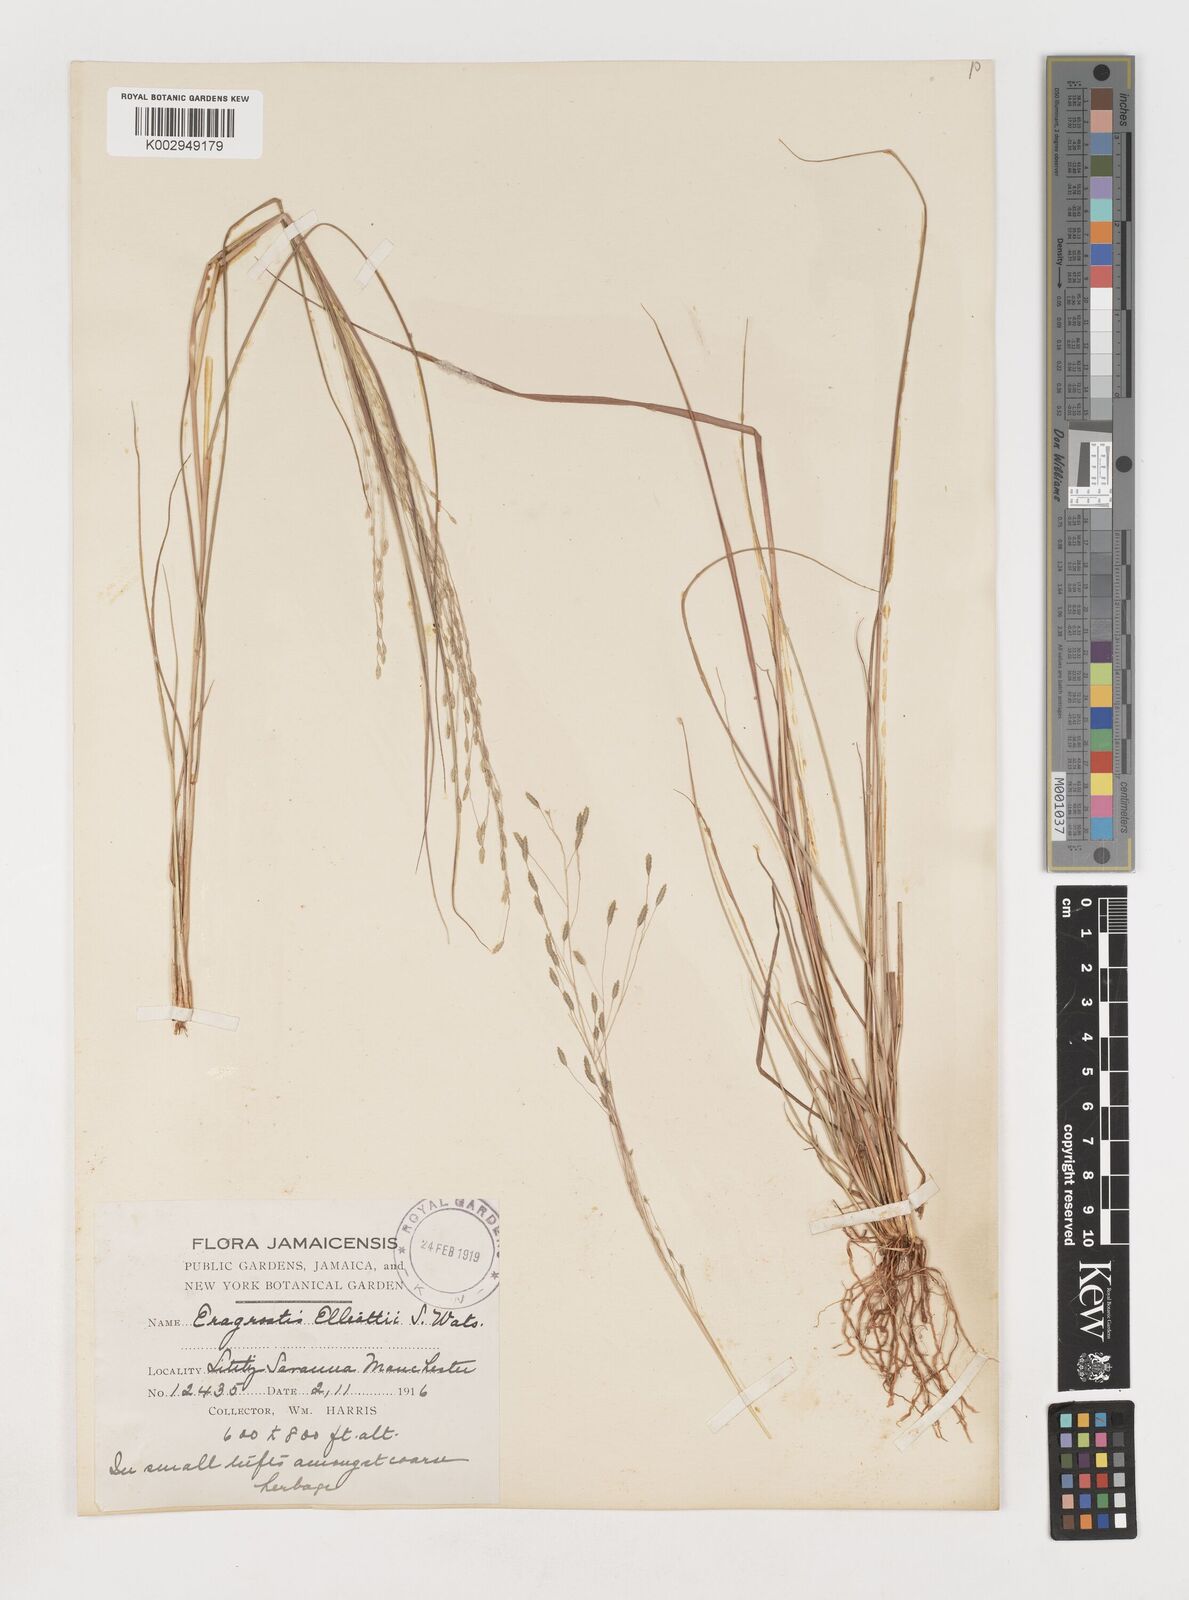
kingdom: Plantae
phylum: Tracheophyta
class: Liliopsida
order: Poales
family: Poaceae
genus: Eragrostis
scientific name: Eragrostis elliottii
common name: Elliott's love grass
